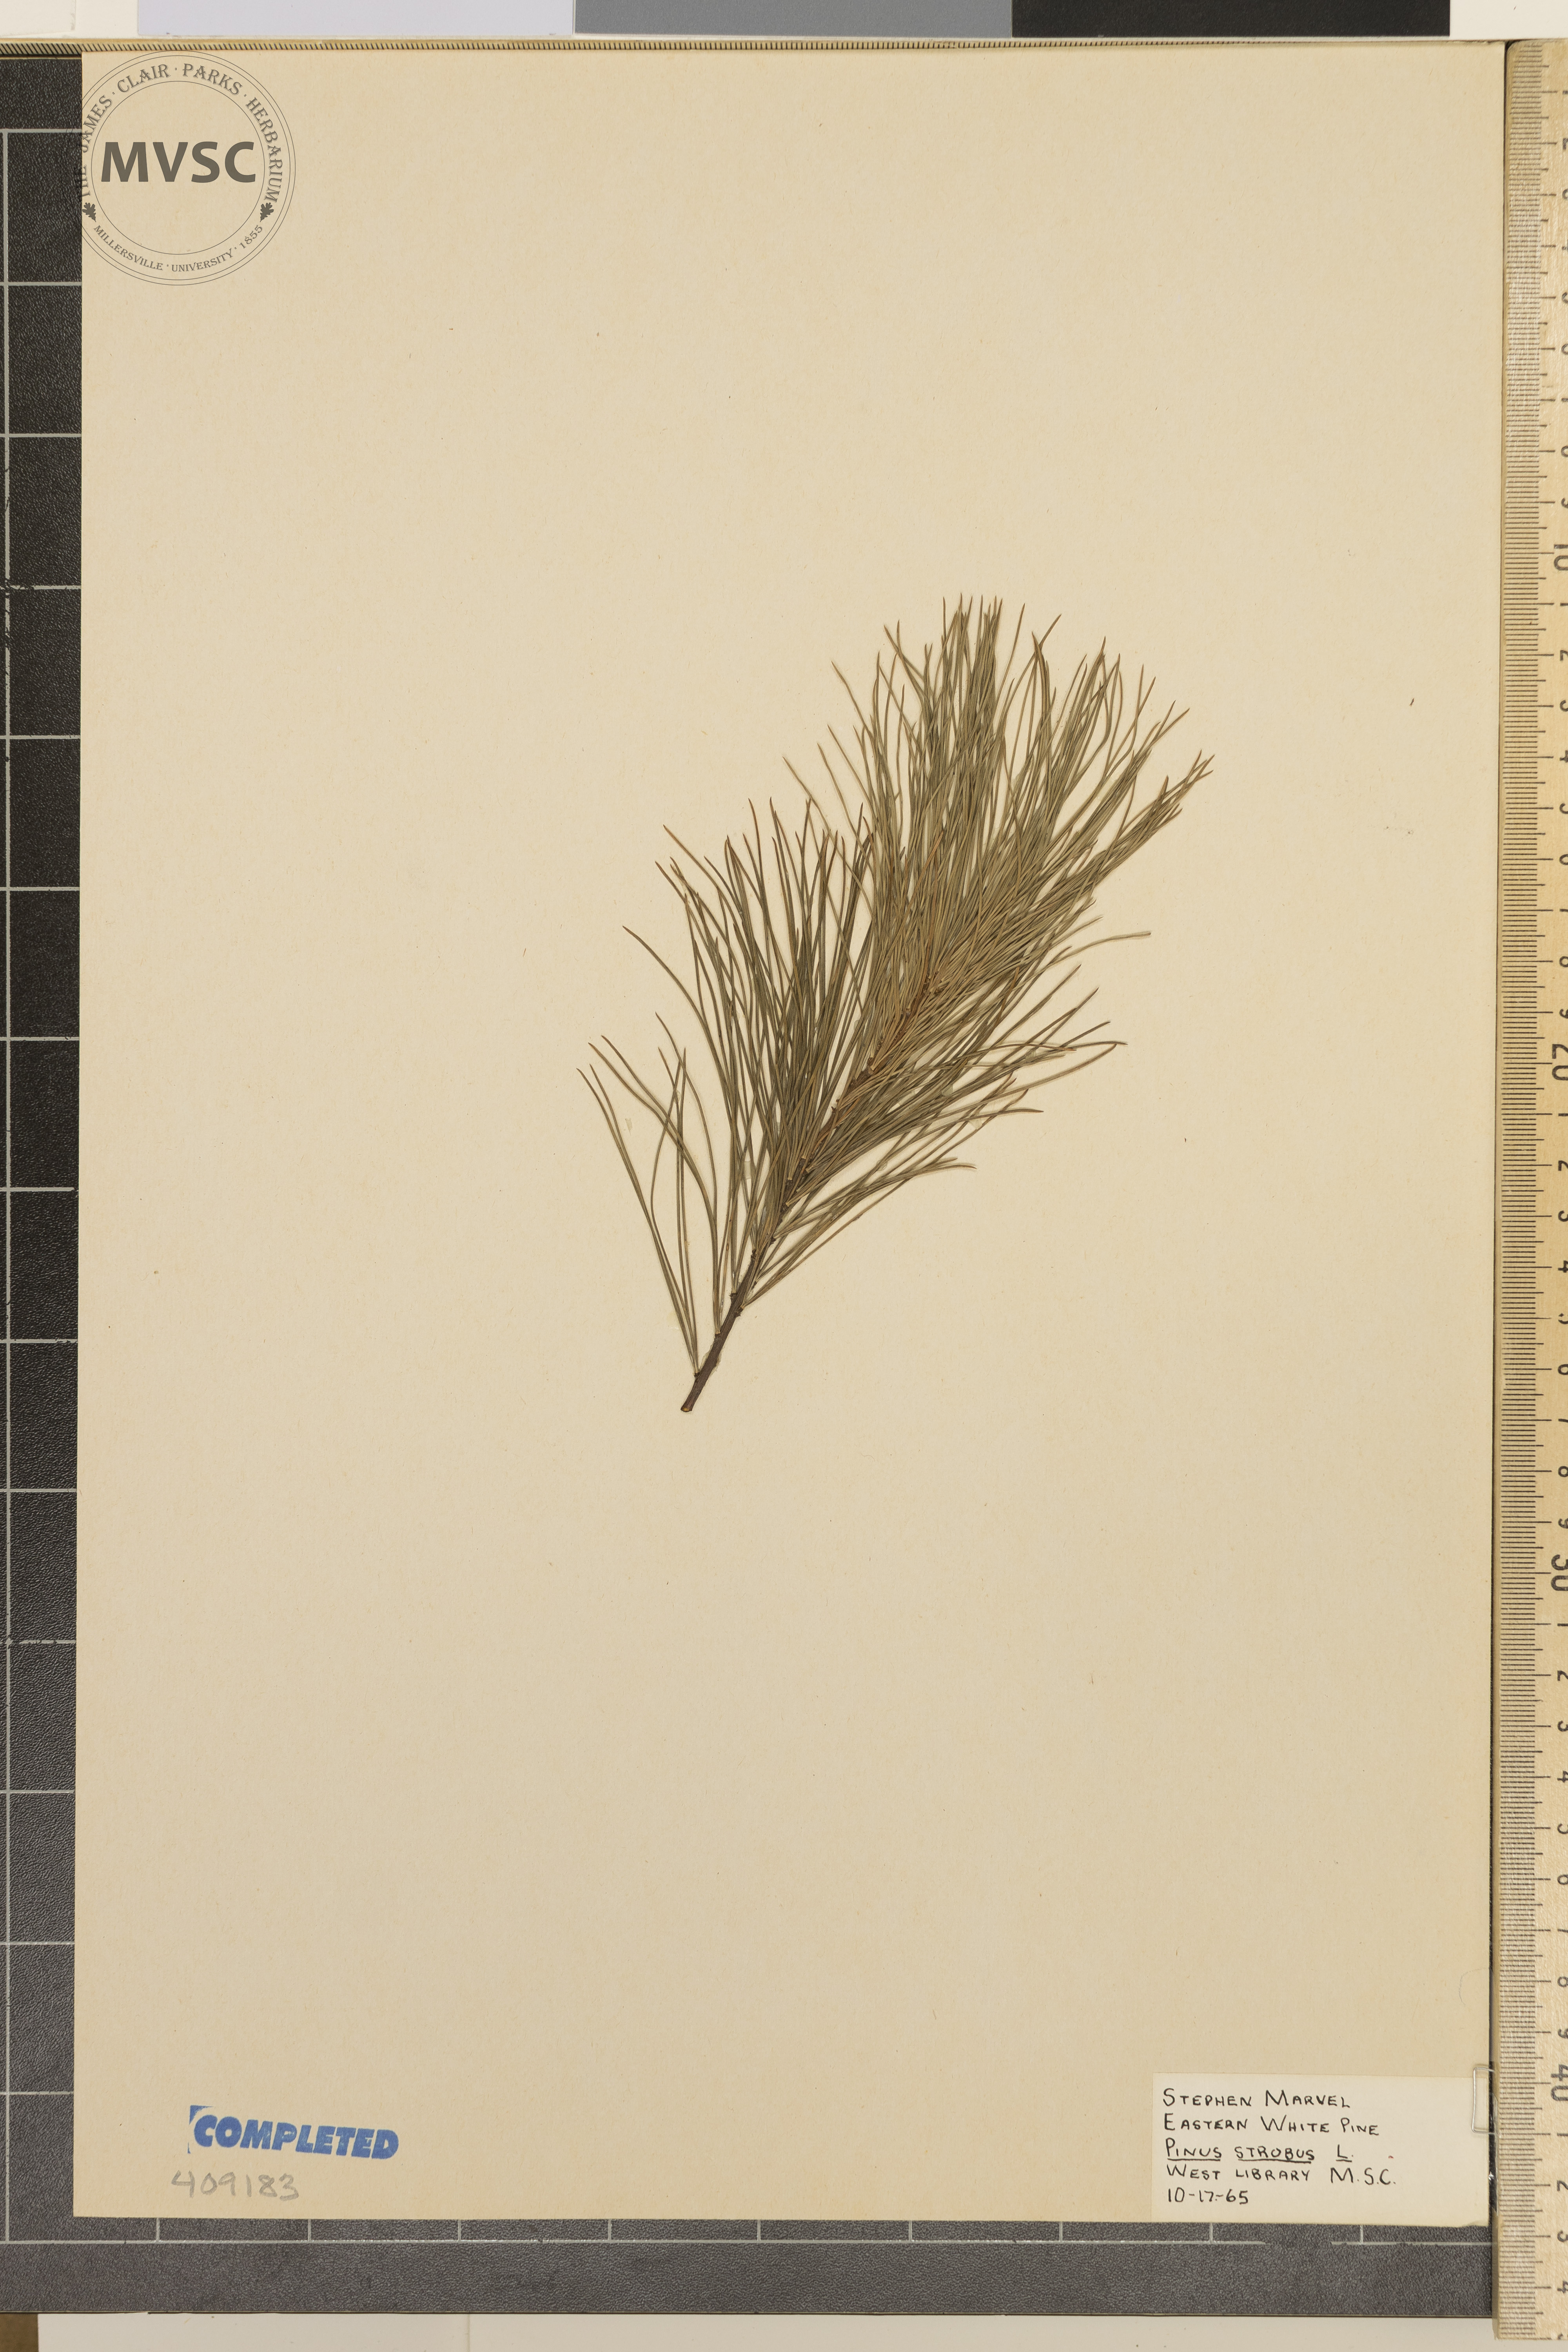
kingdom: Plantae
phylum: Tracheophyta
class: Pinopsida
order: Pinales
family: Pinaceae
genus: Pinus
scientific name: Pinus strobus
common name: Weymouth pine
